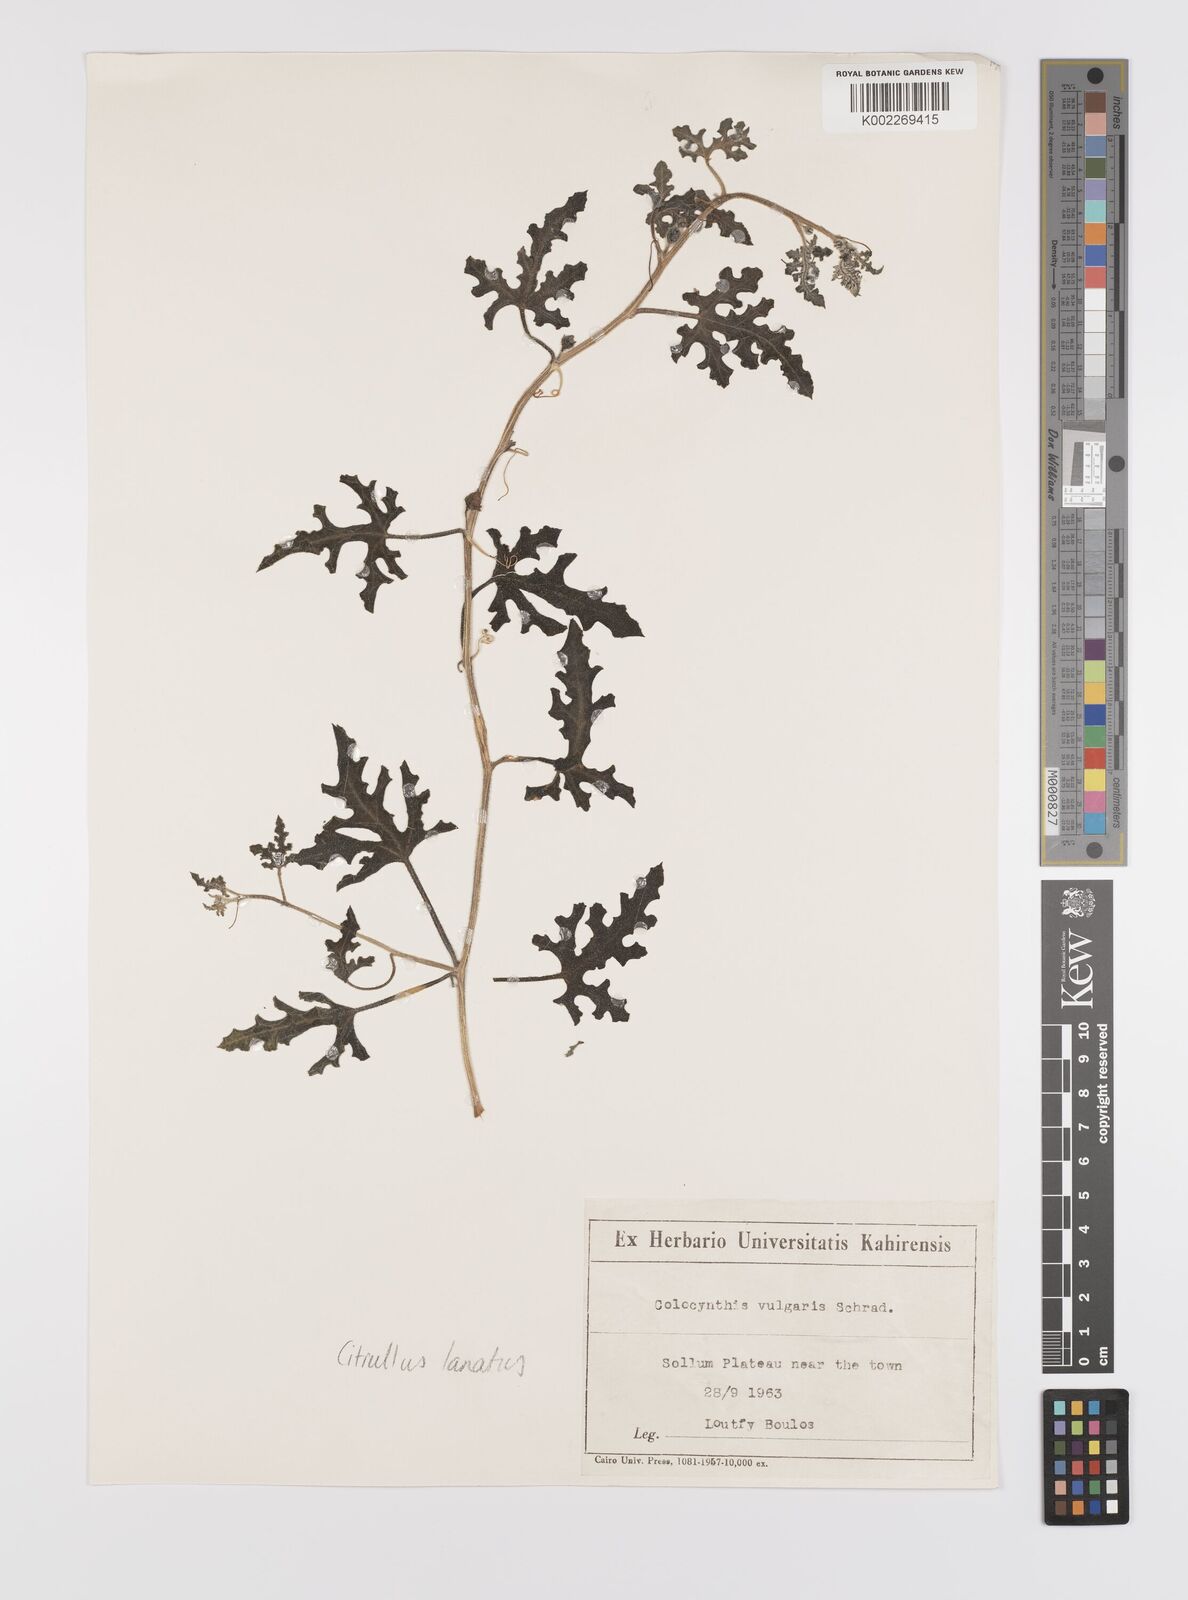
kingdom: Plantae
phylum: Tracheophyta
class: Magnoliopsida
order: Cucurbitales
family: Cucurbitaceae
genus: Citrullus
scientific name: Citrullus lanatus
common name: Watermelon
